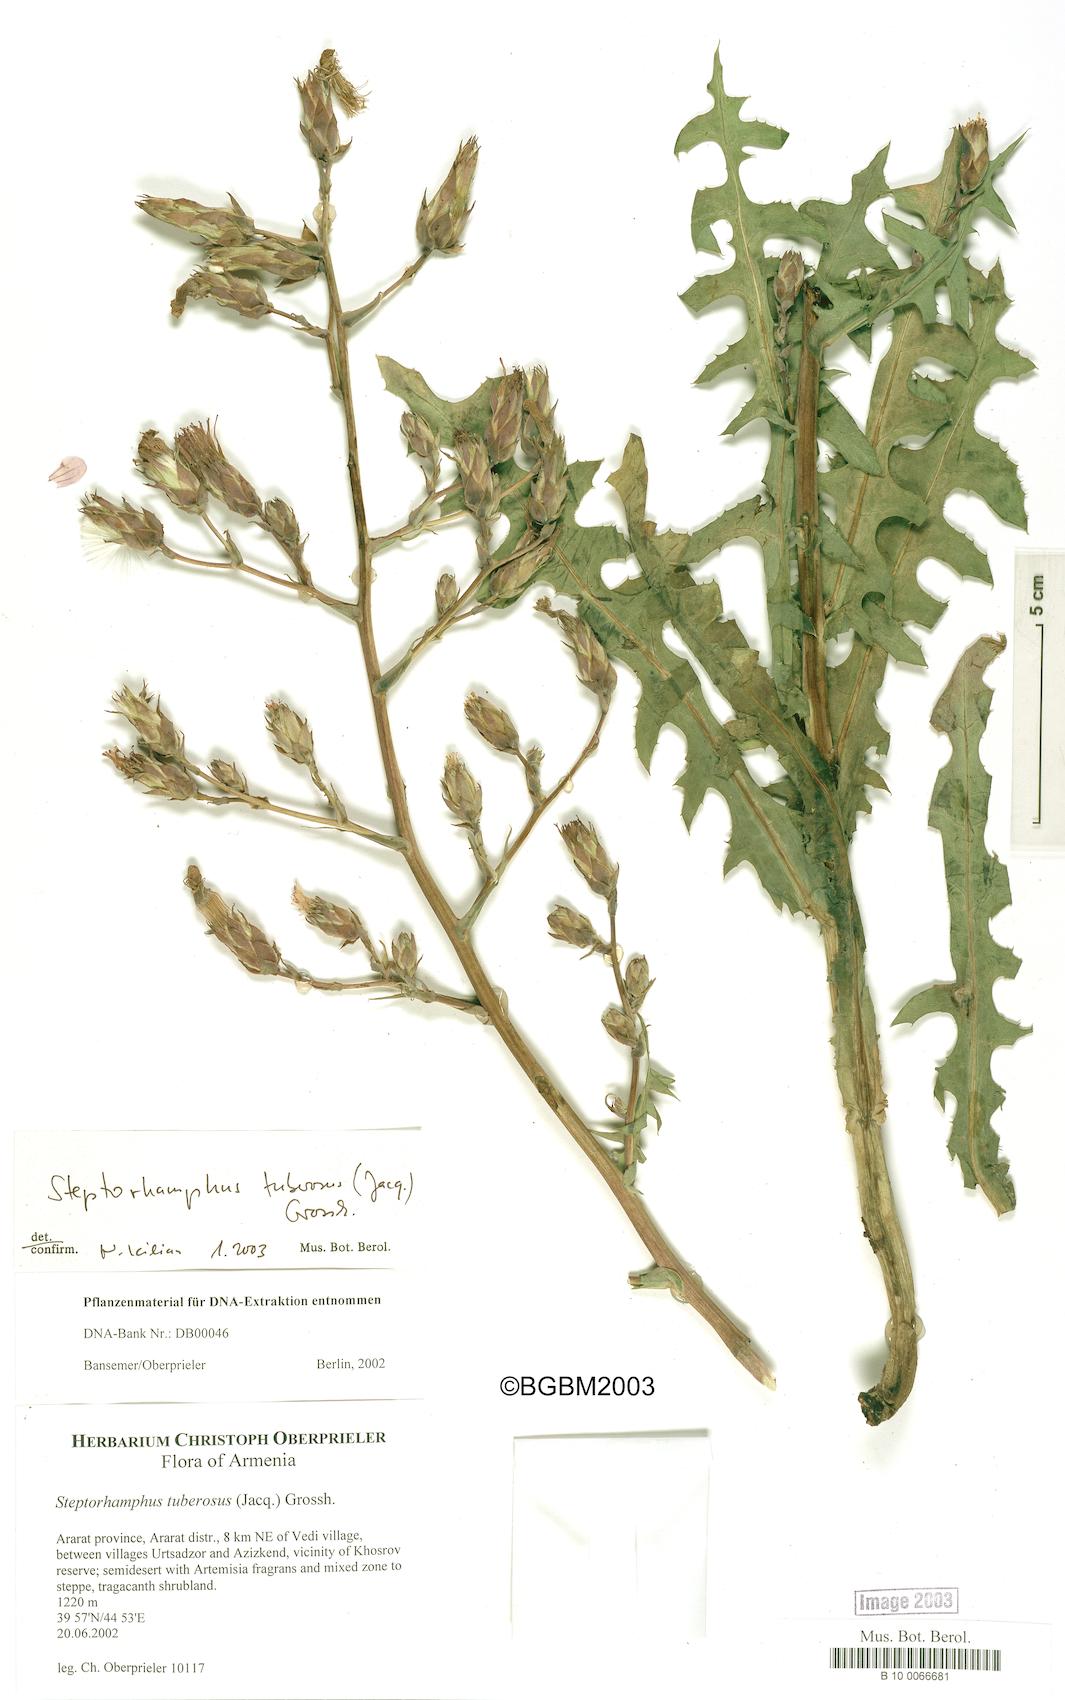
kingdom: Plantae
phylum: Tracheophyta
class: Magnoliopsida
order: Asterales
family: Asteraceae
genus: Lactuca
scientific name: Lactuca tuberosa
